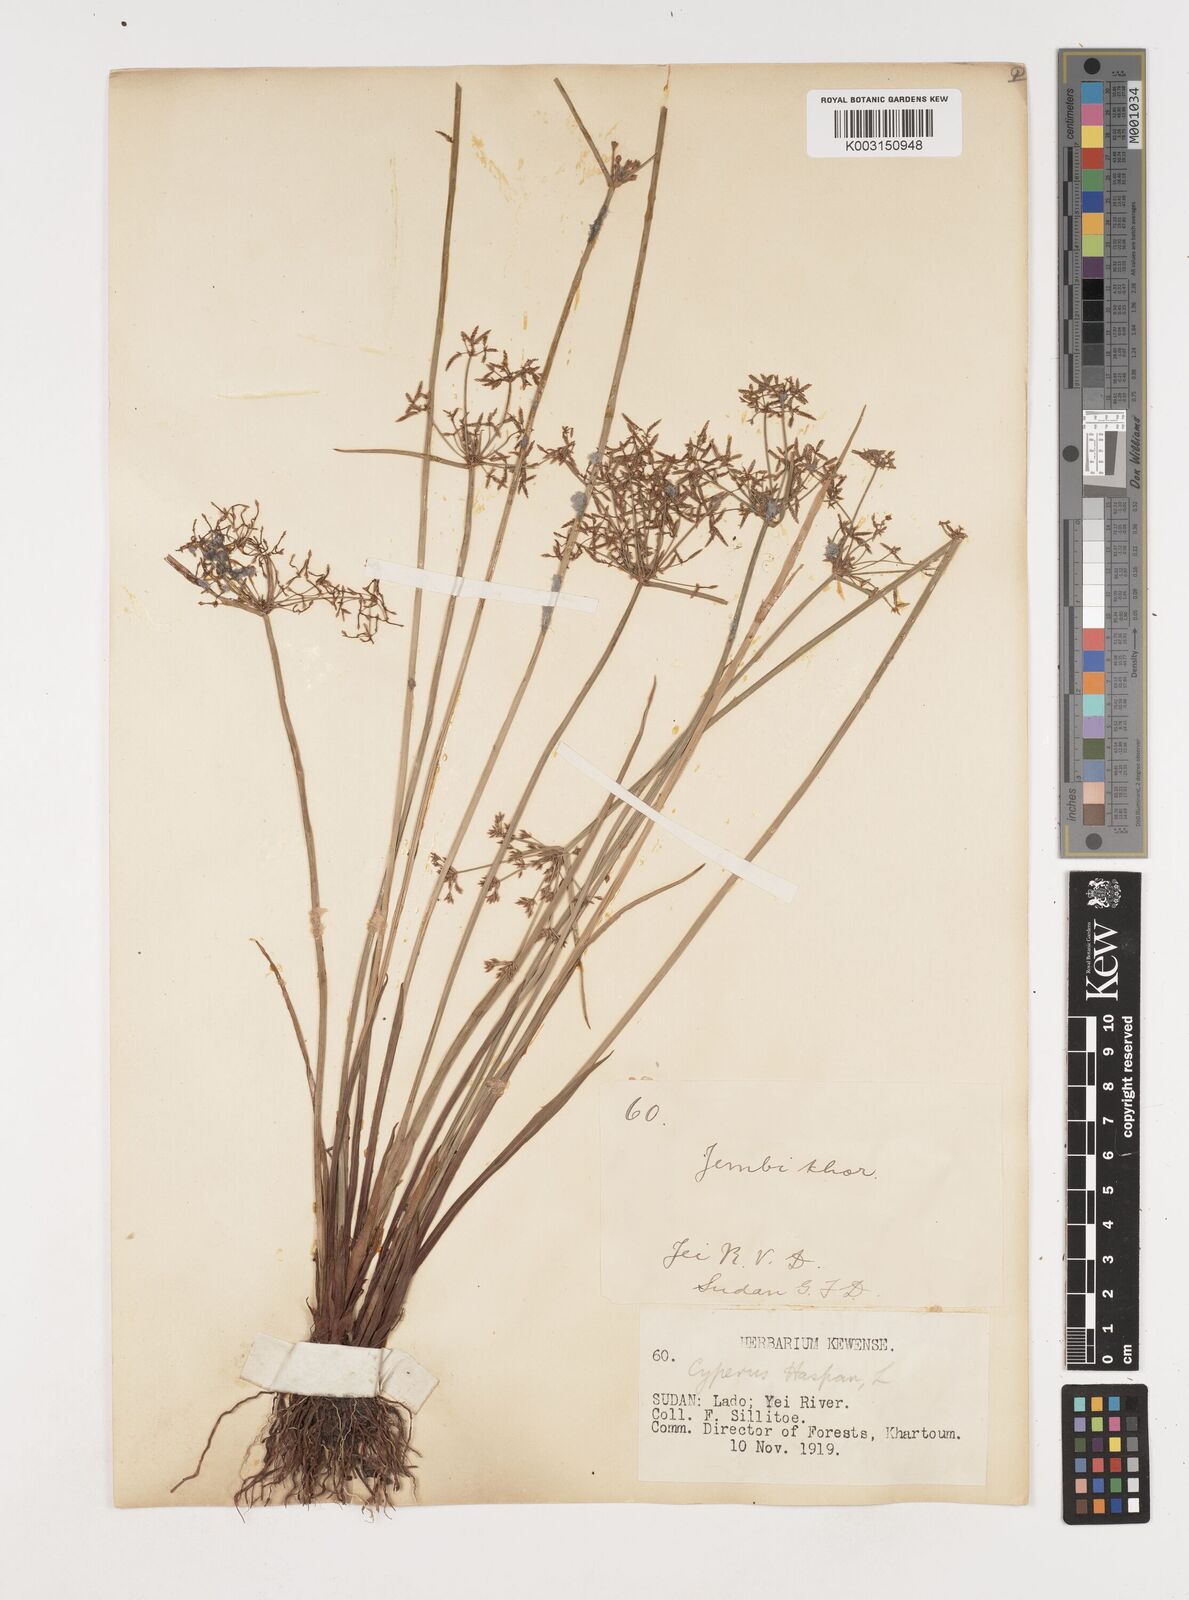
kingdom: Plantae
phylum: Tracheophyta
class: Liliopsida
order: Poales
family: Cyperaceae
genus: Cyperus
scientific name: Cyperus haspan
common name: Haspan flatsedge
